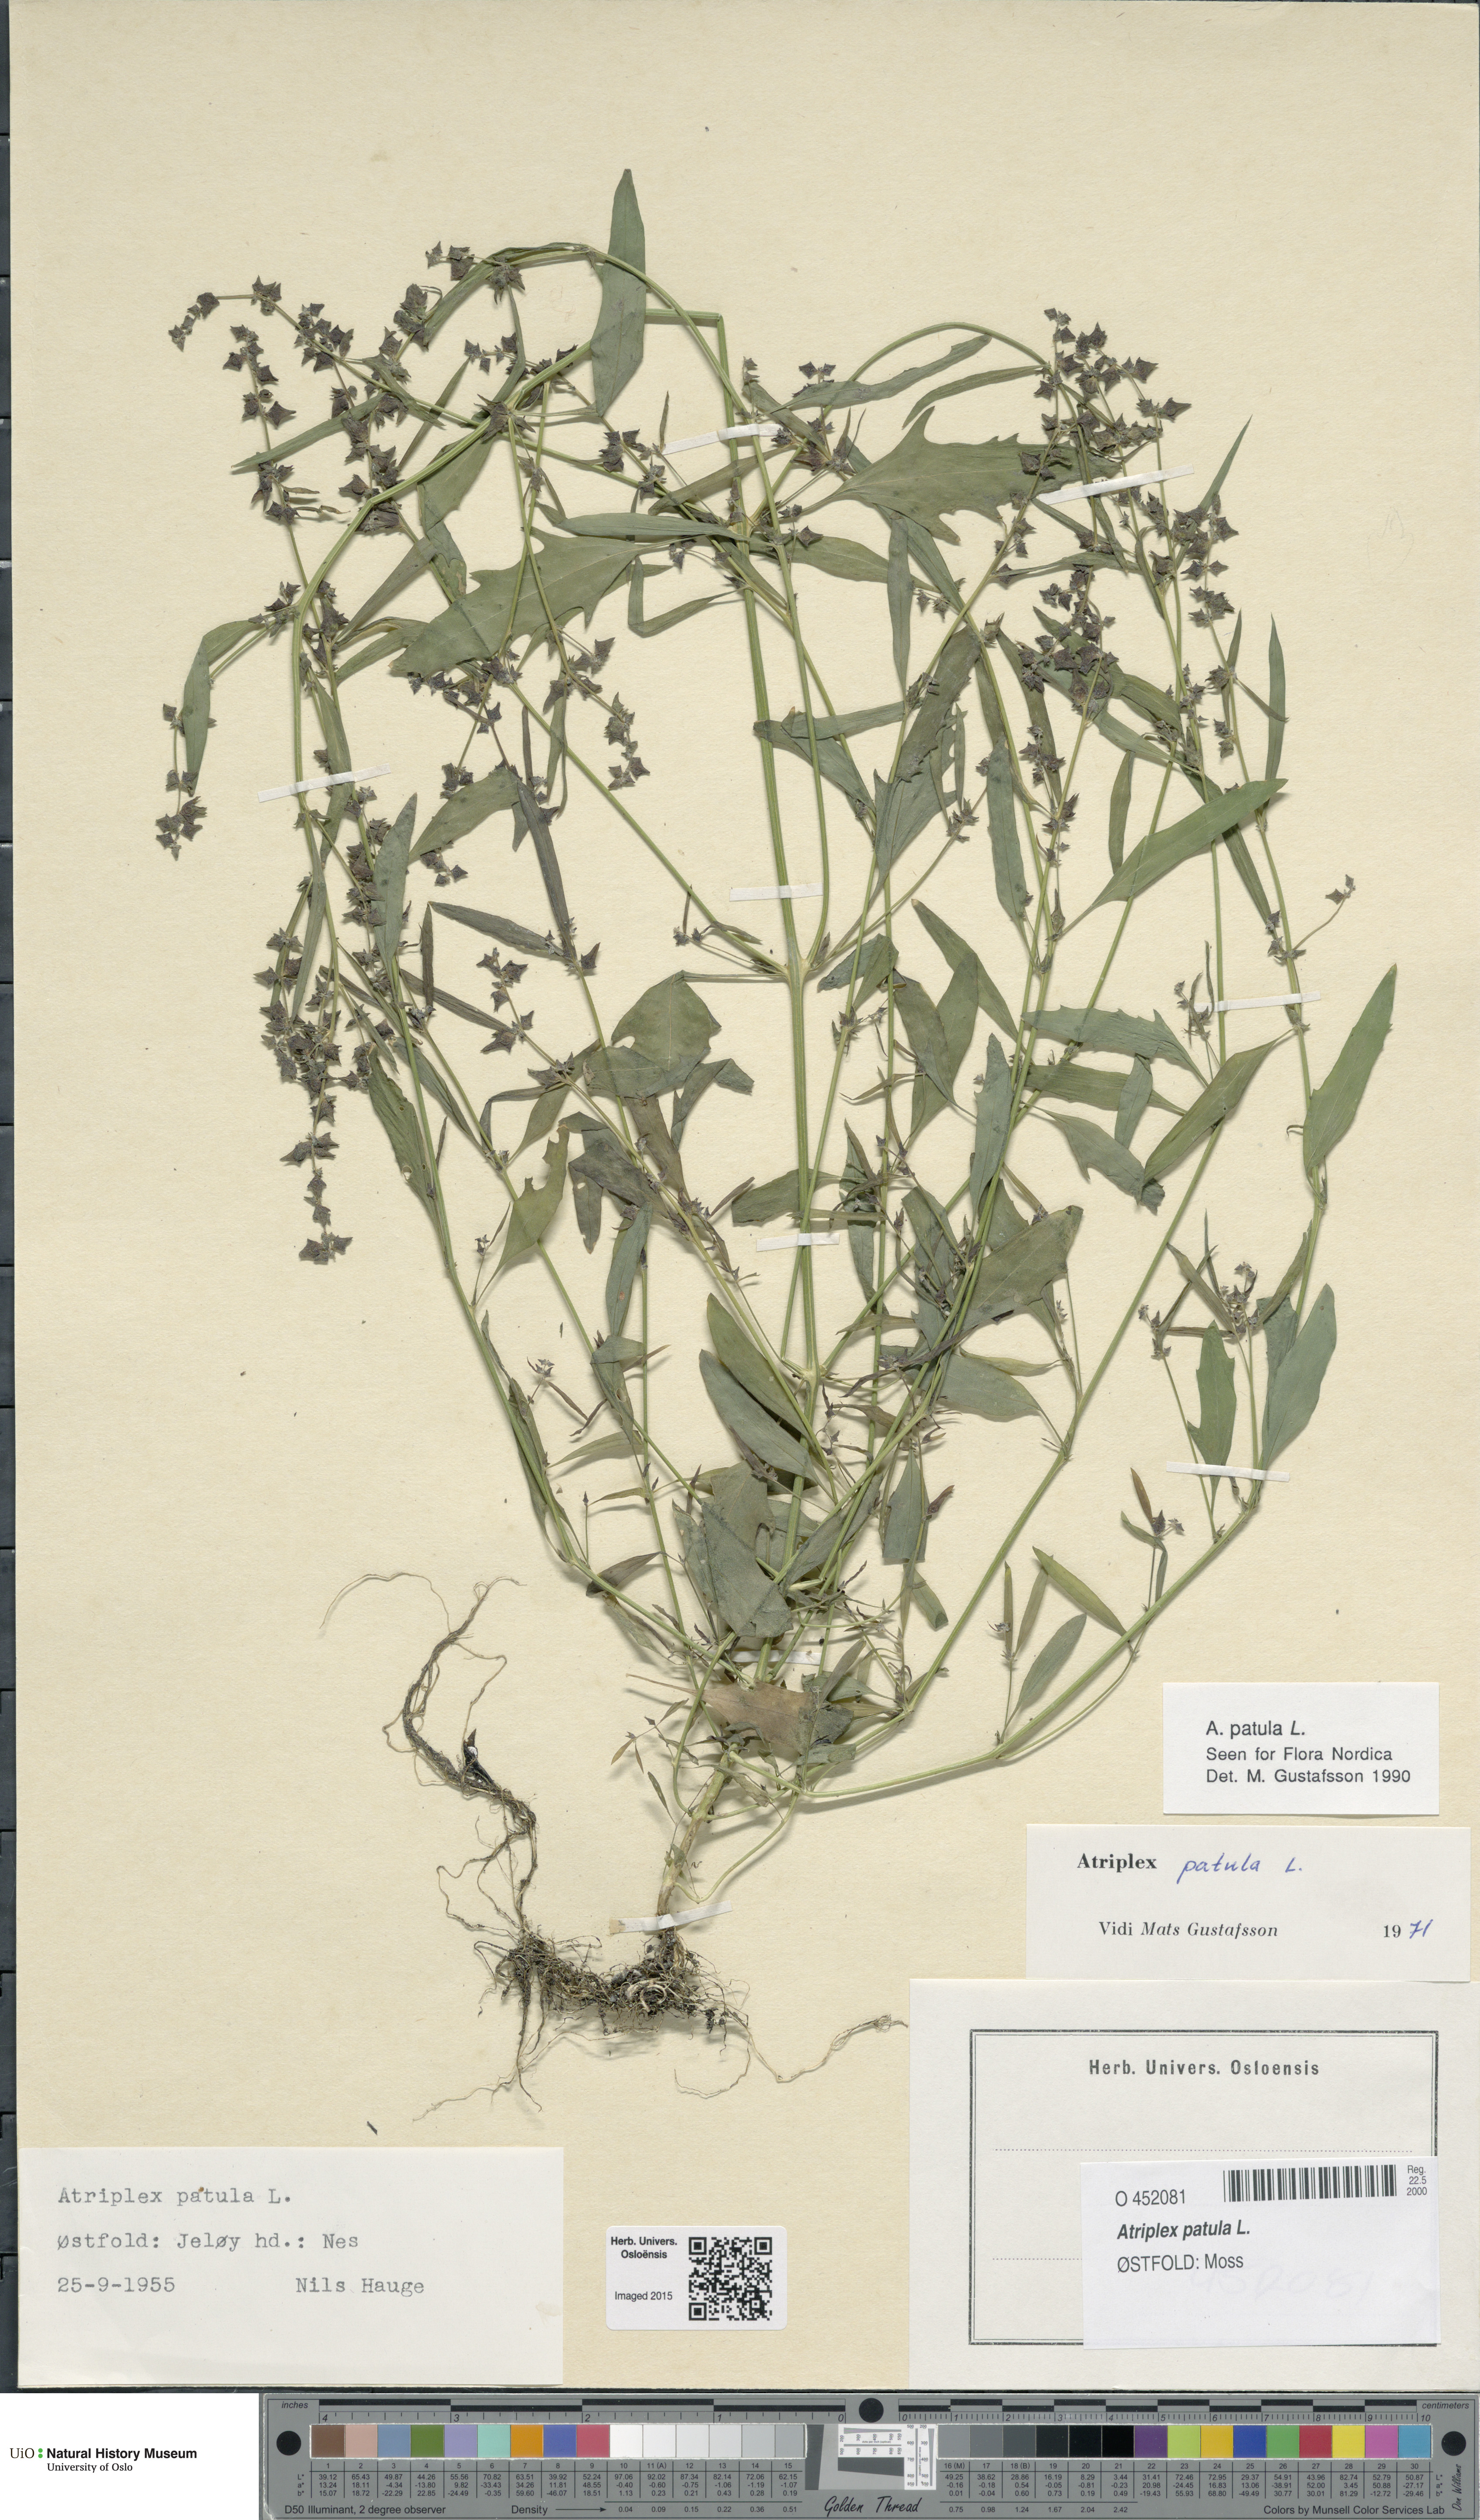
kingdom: Plantae
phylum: Tracheophyta
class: Magnoliopsida
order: Caryophyllales
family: Amaranthaceae
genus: Atriplex
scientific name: Atriplex patula
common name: Common orache
